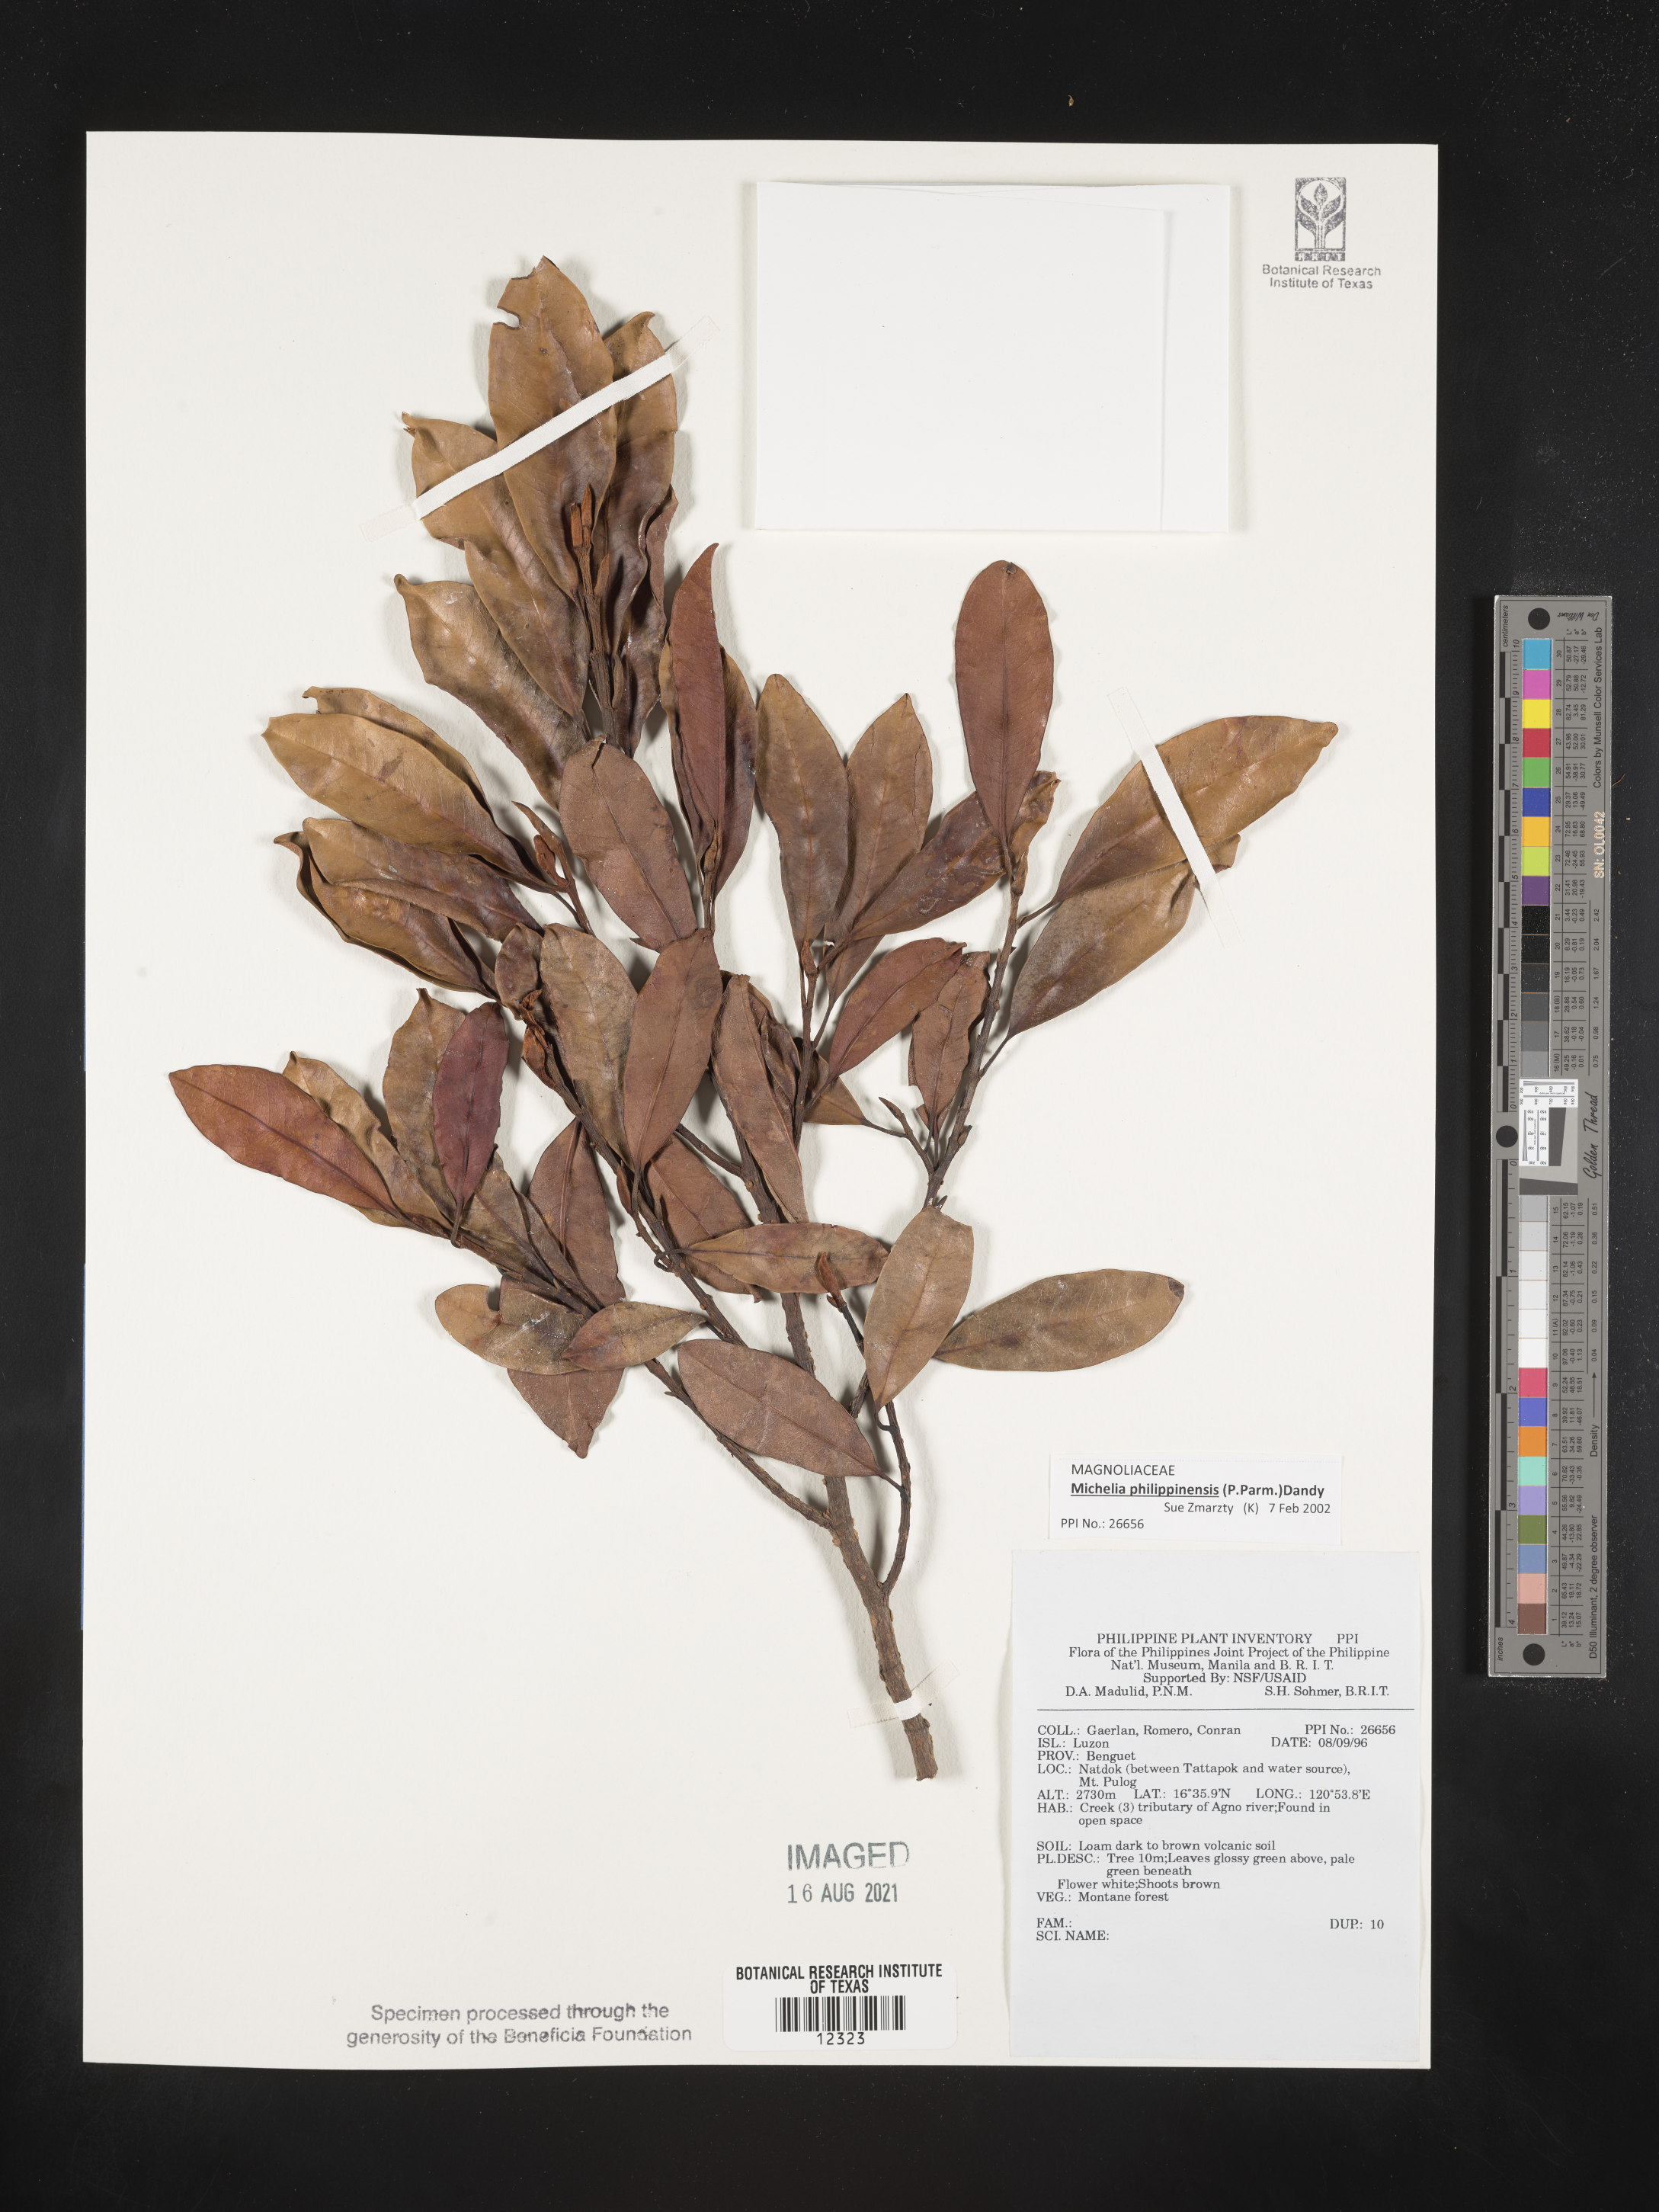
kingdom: Plantae
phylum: Tracheophyta
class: Magnoliopsida
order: Magnoliales
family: Magnoliaceae
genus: Magnolia
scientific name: Magnolia philippinensis
